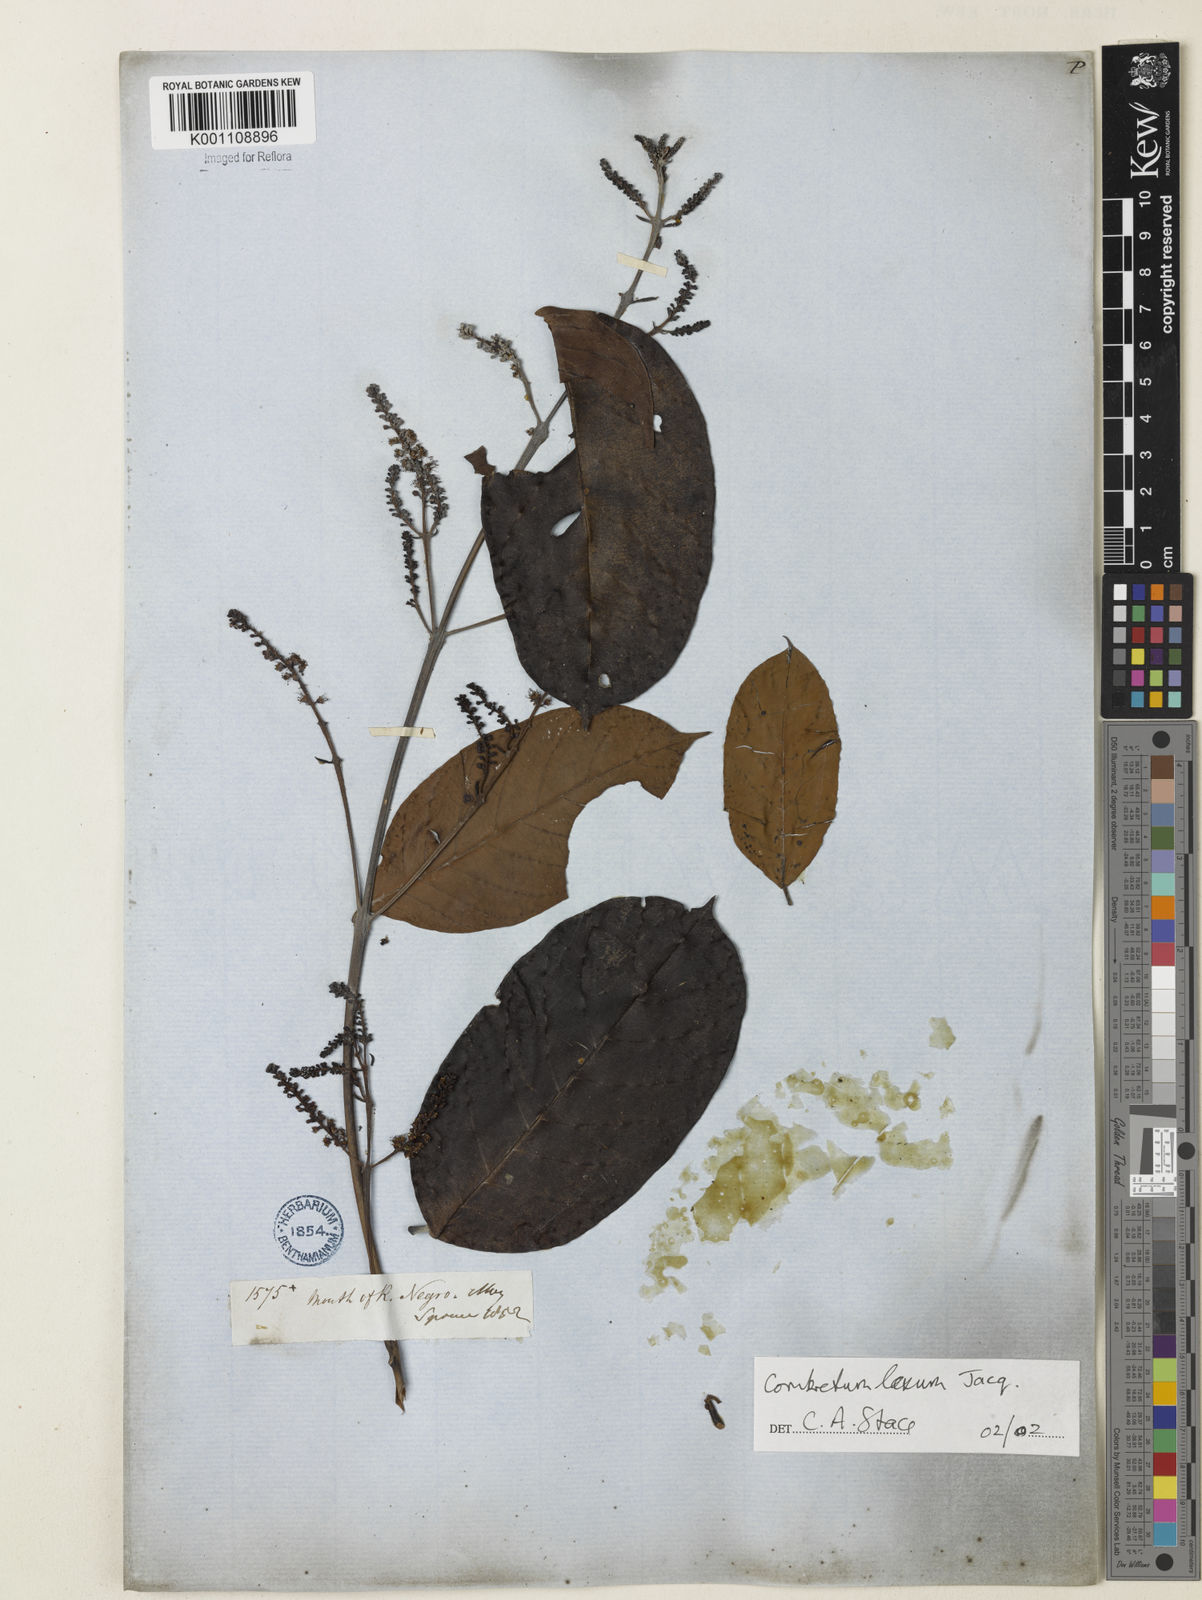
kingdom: Plantae
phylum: Tracheophyta
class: Magnoliopsida
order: Myrtales
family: Combretaceae
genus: Combretum
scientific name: Combretum laxum
